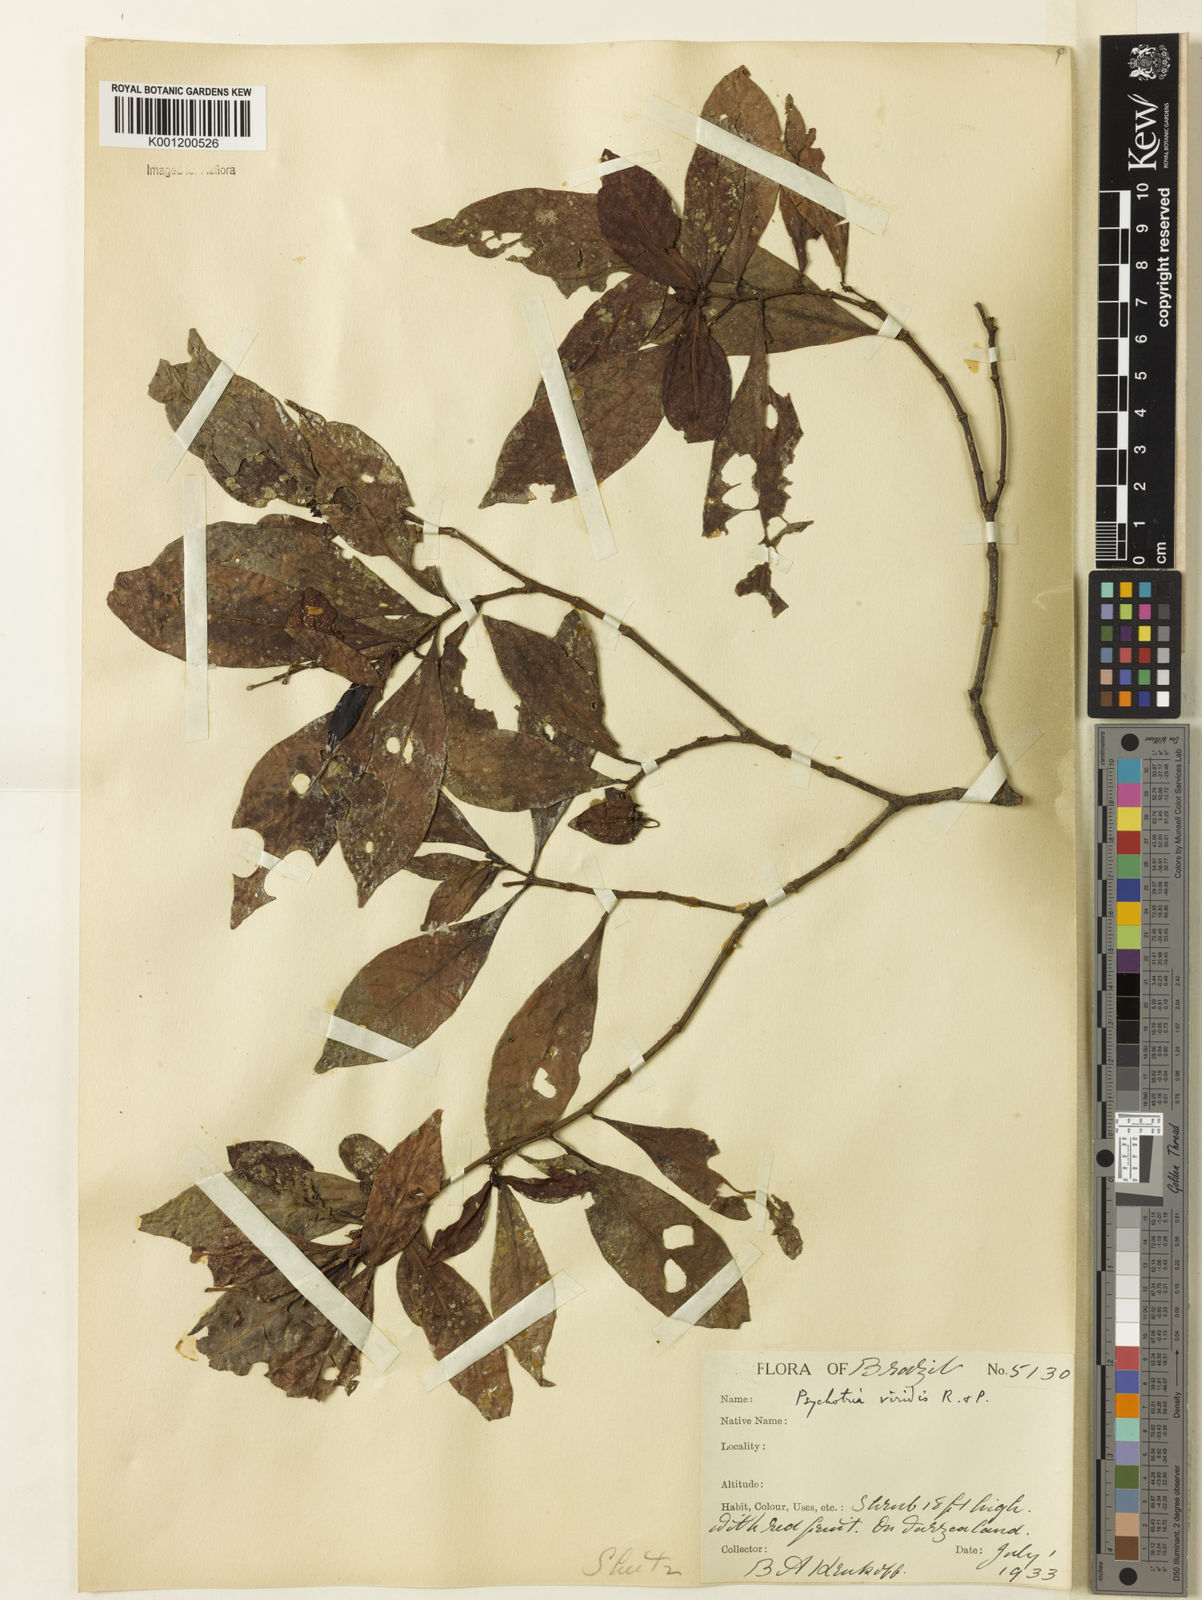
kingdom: Plantae
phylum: Tracheophyta
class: Magnoliopsida
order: Gentianales
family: Rubiaceae
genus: Psychotria
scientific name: Psychotria viridis
